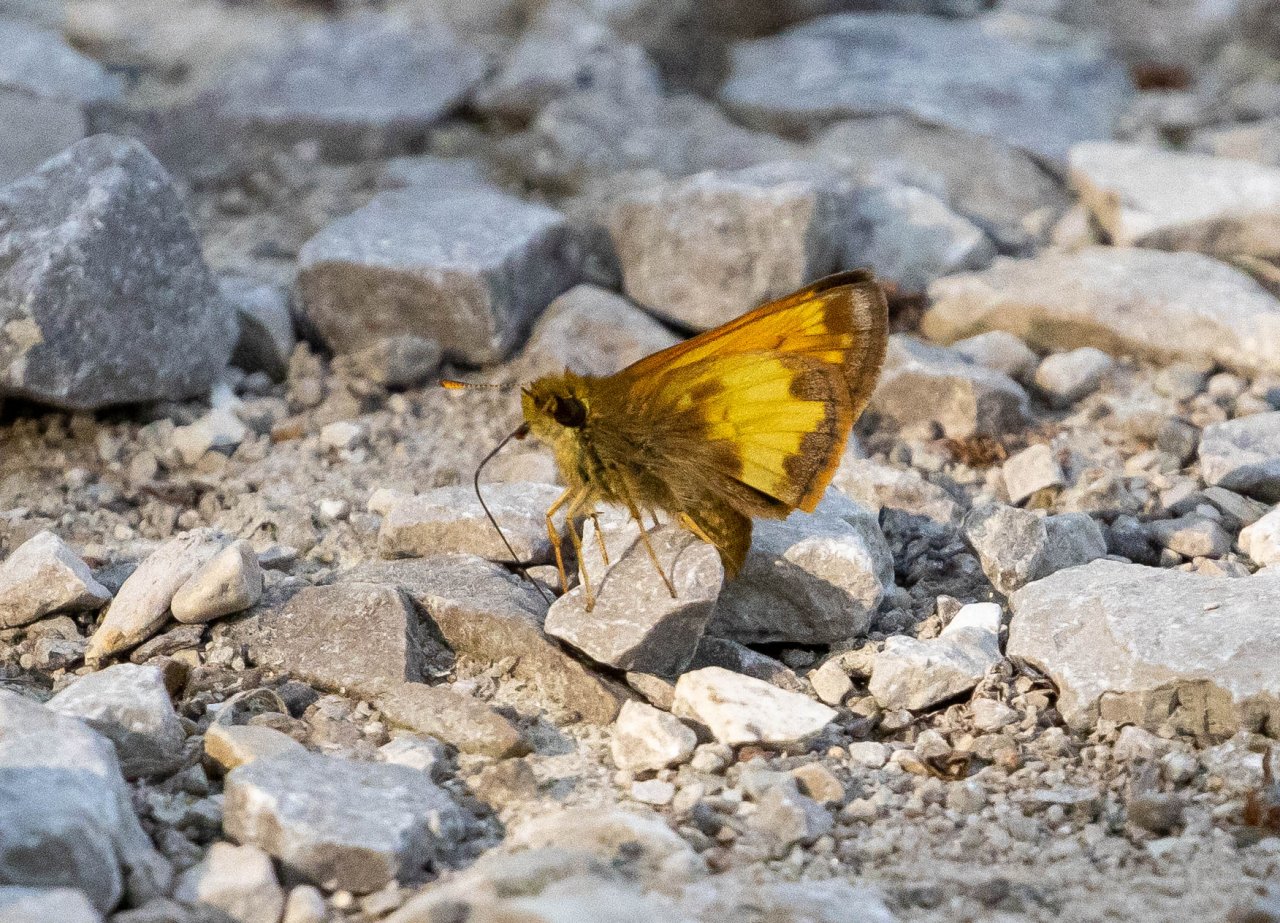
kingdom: Animalia
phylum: Arthropoda
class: Insecta
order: Lepidoptera
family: Hesperiidae
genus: Lon
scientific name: Lon hobomok
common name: Hobomok Skipper
